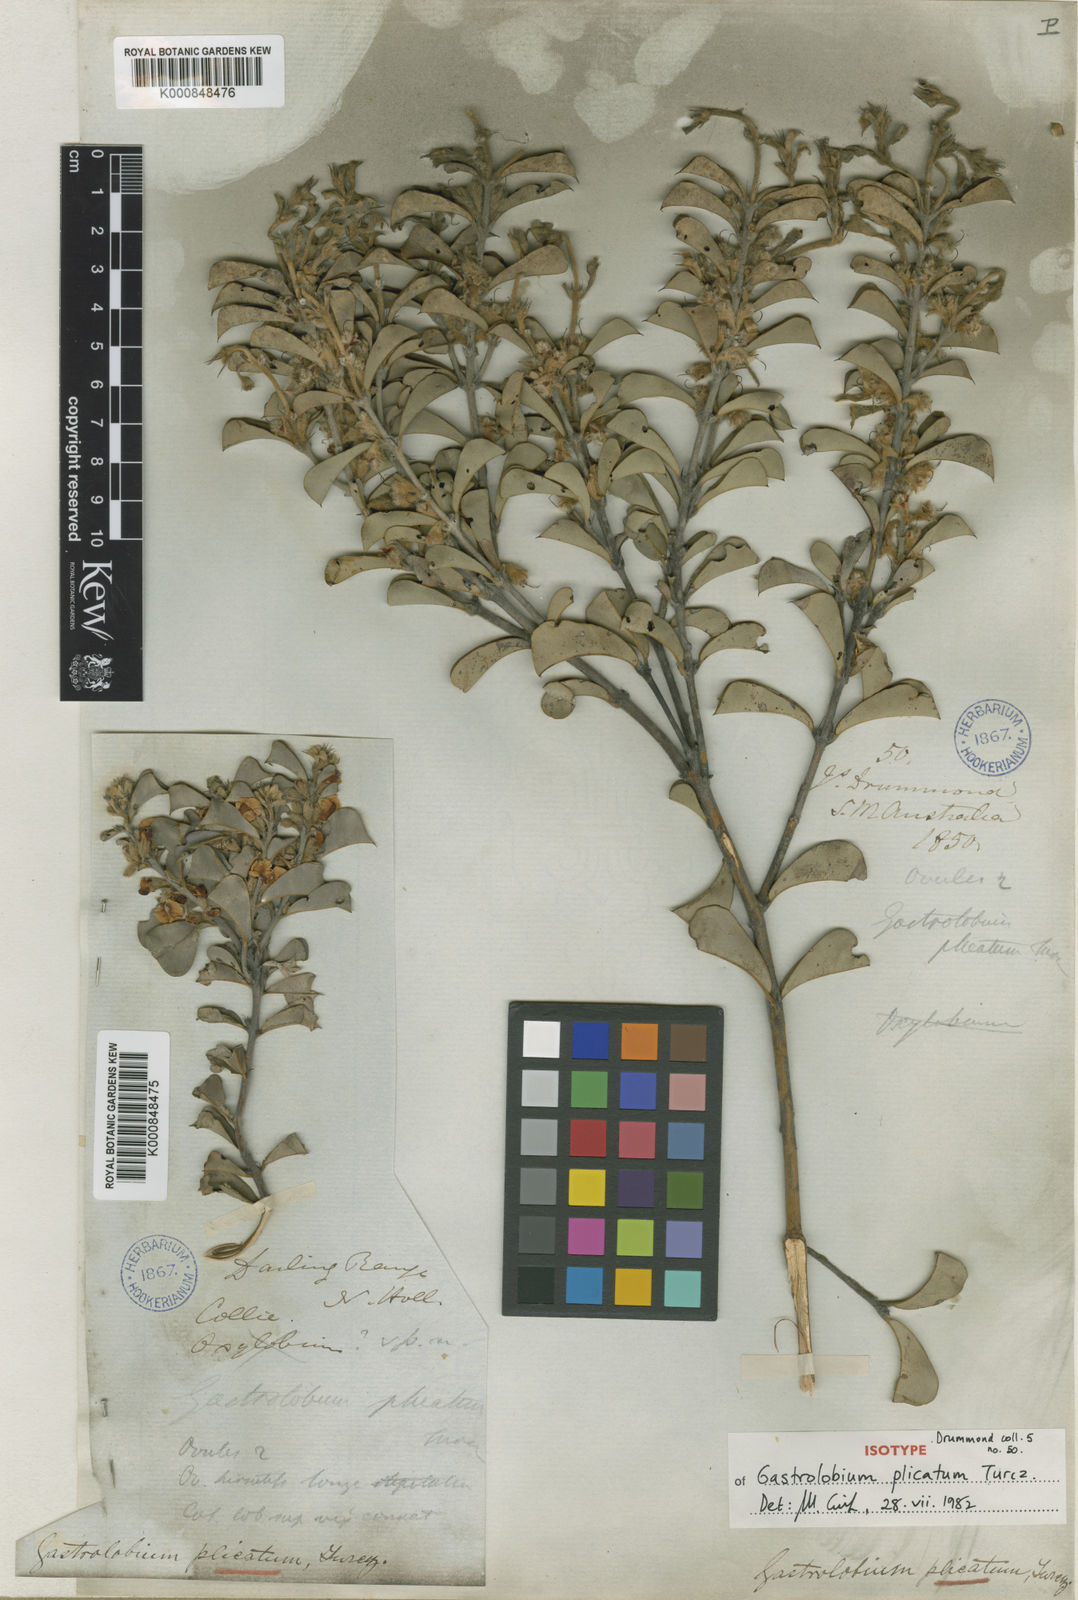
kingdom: Plantae
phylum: Tracheophyta
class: Magnoliopsida
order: Fabales
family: Fabaceae
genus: Gastrolobium
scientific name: Gastrolobium plicatum
